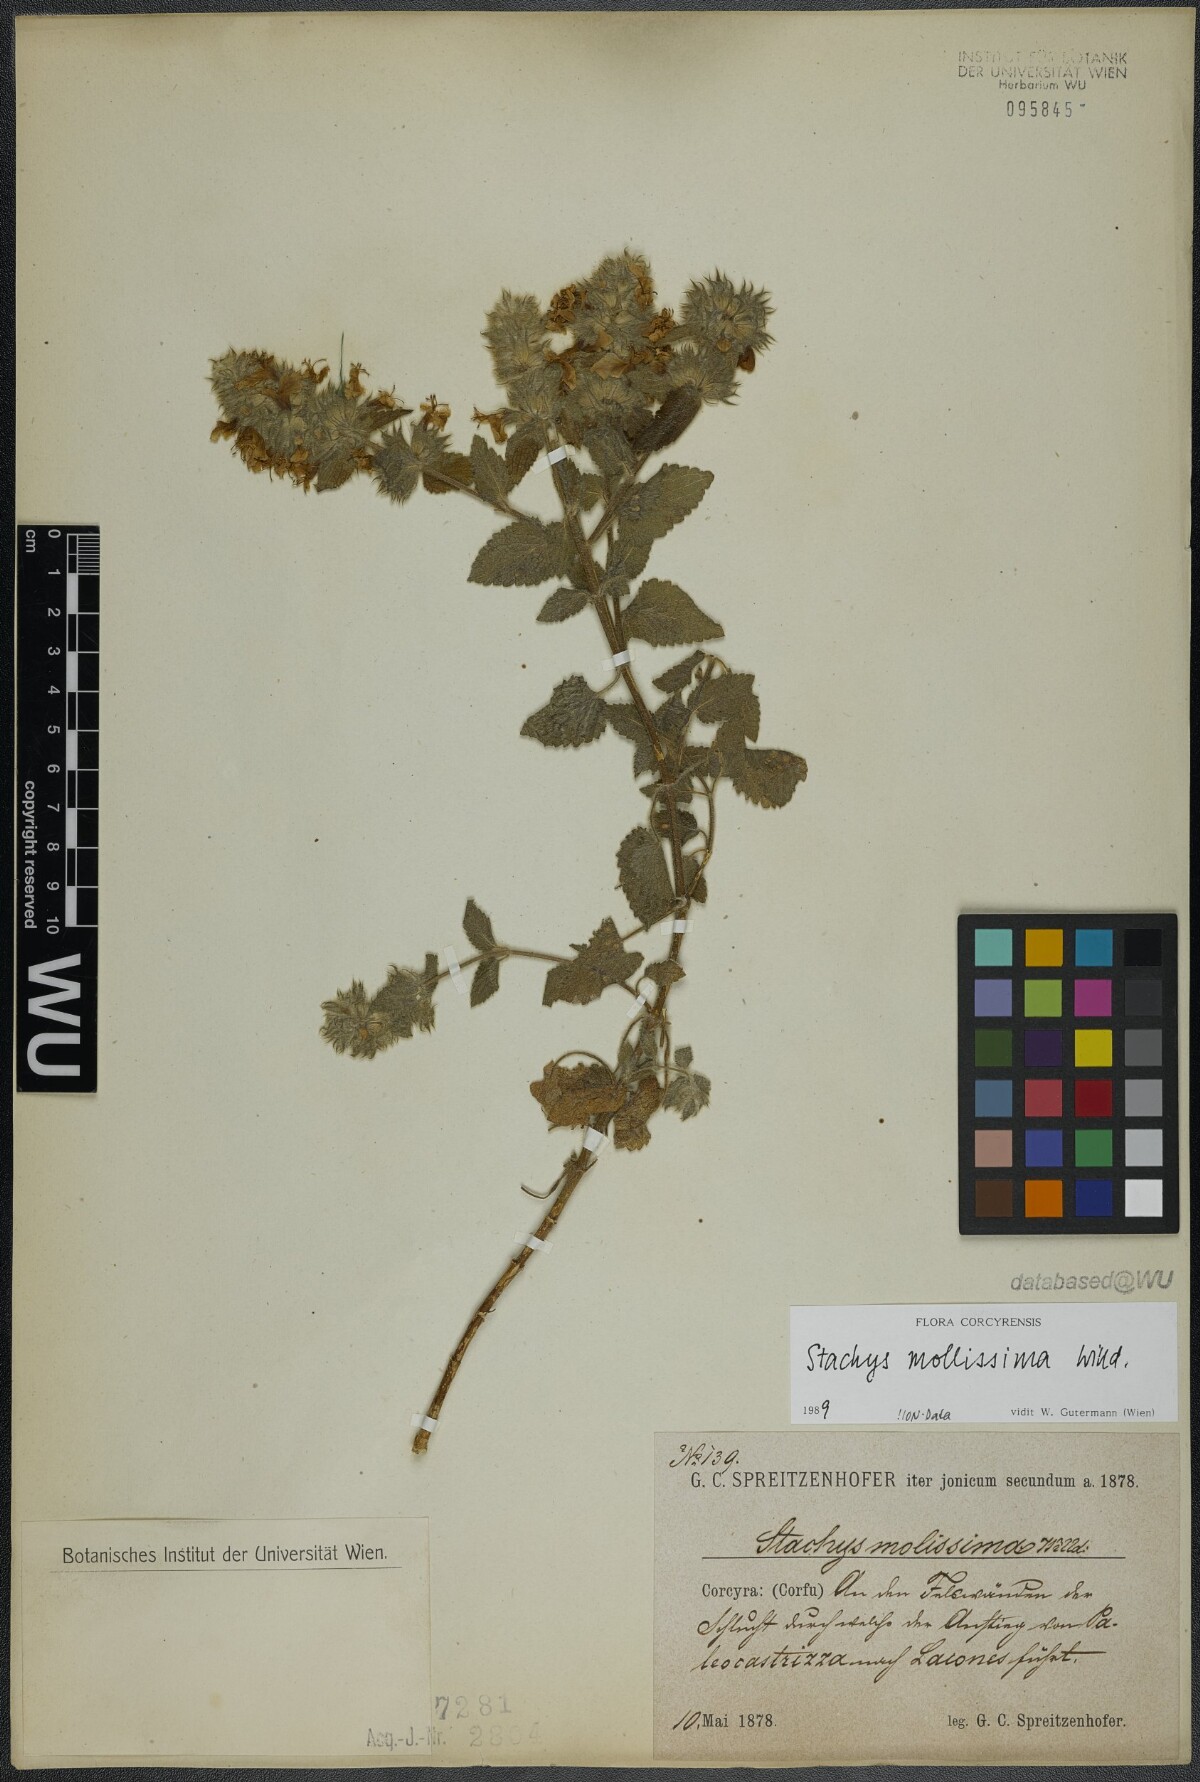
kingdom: Plantae
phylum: Tracheophyta
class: Magnoliopsida
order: Lamiales
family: Lamiaceae
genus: Stachys
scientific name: Stachys mollissima
